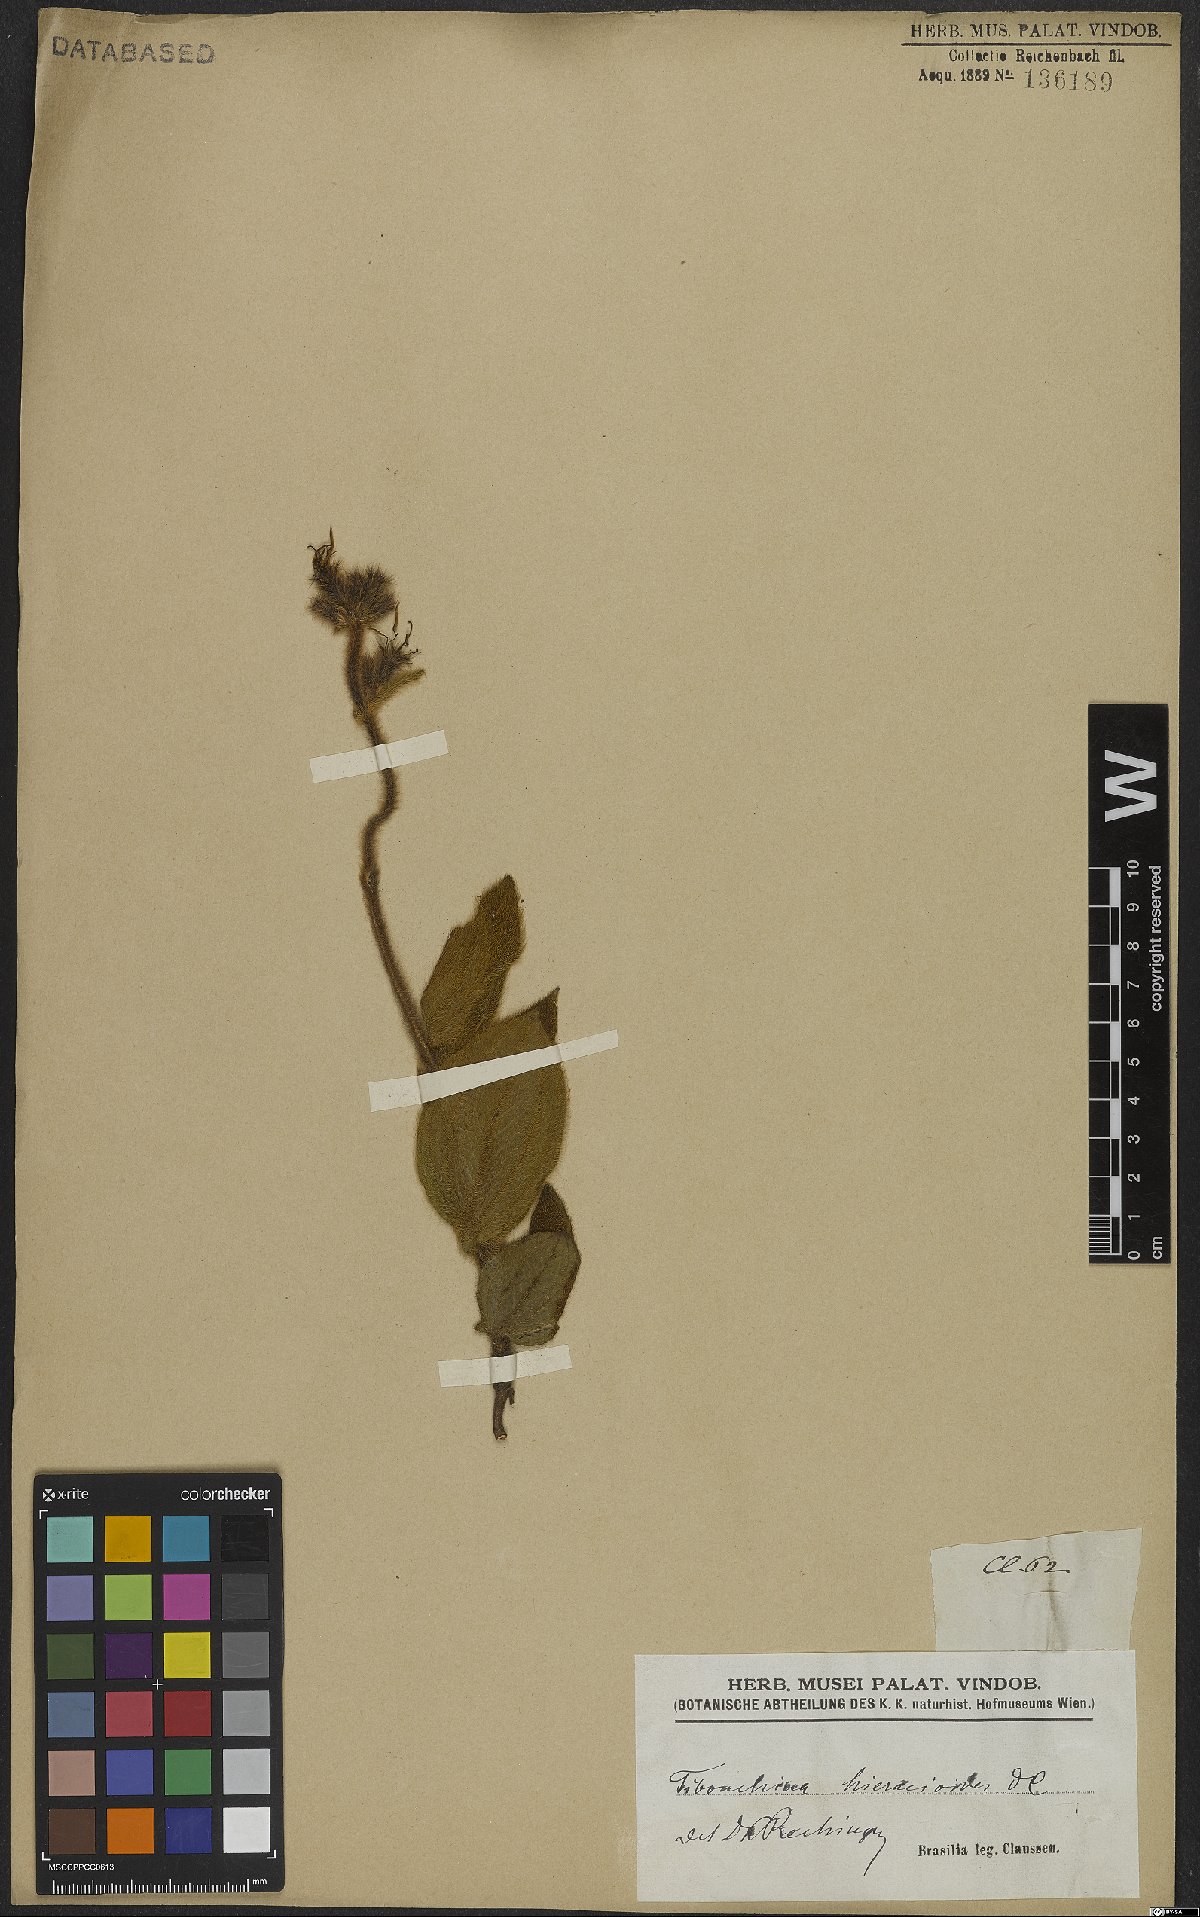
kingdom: Plantae
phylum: Tracheophyta
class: Magnoliopsida
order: Myrtales
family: Melastomataceae
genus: Chaetogastra
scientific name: Chaetogastra hieracioides
